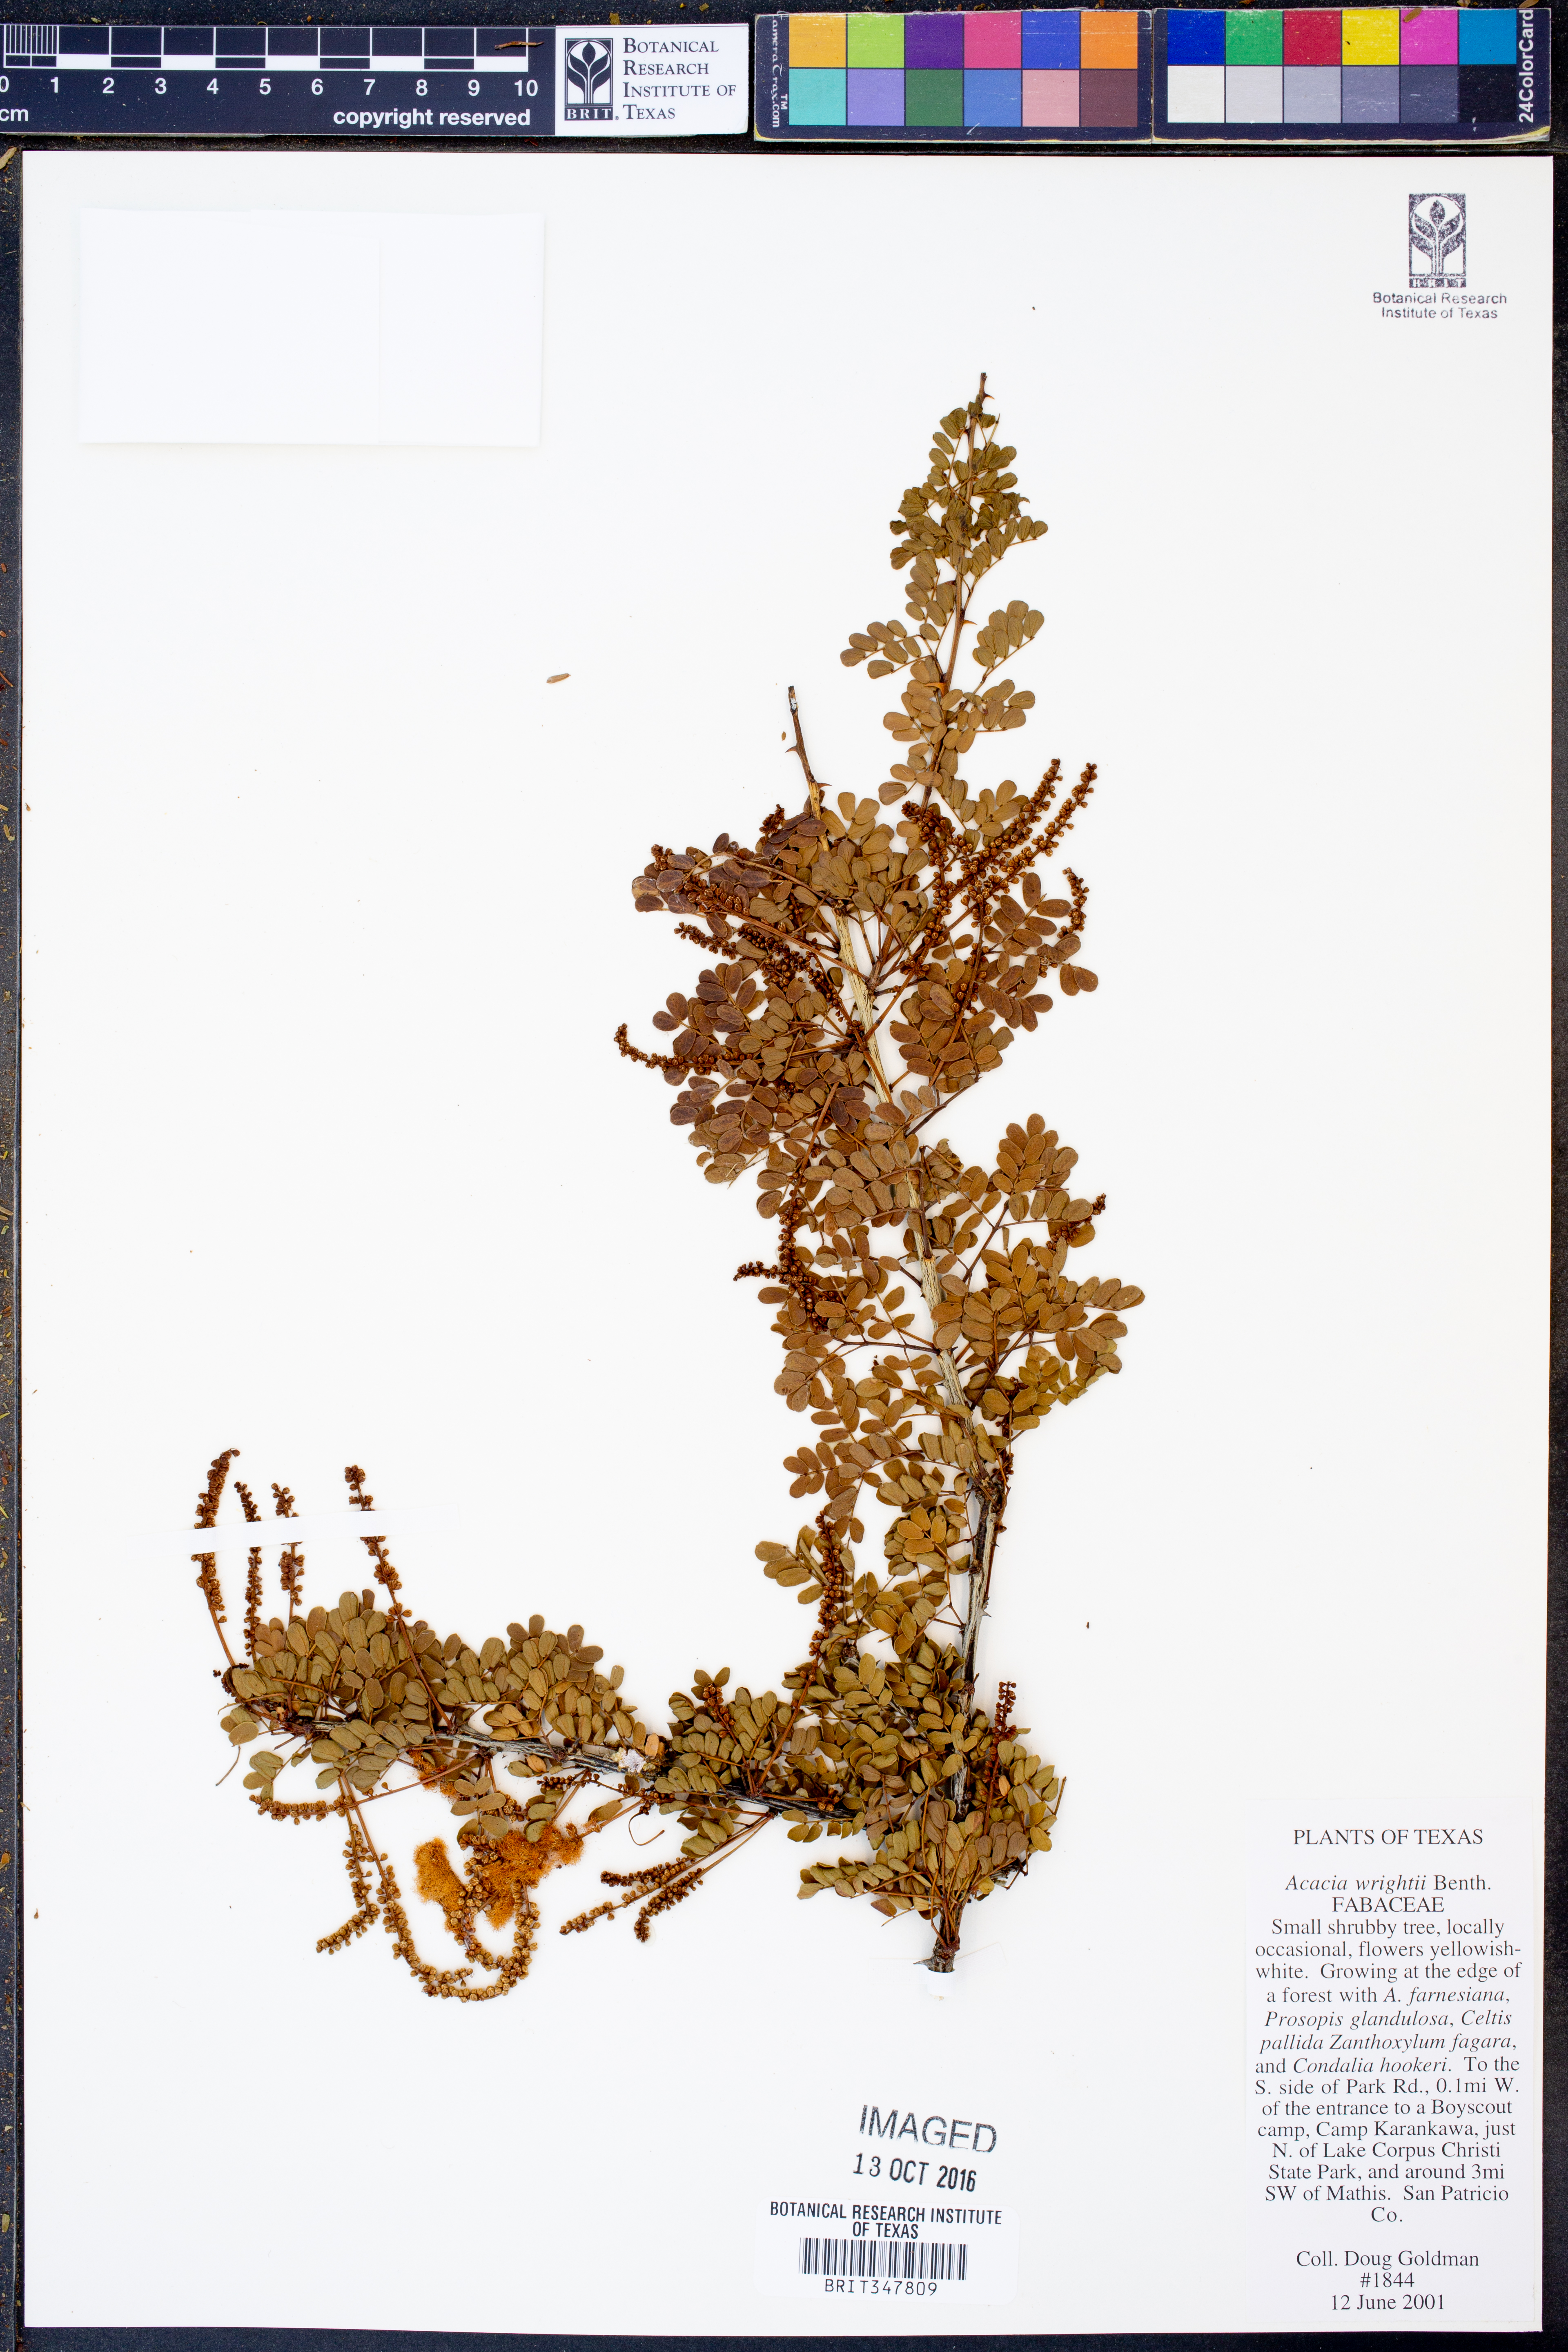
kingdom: Plantae
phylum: Tracheophyta
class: Magnoliopsida
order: Fabales
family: Fabaceae
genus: Senegalia
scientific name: Senegalia wrightii
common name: Texas cat's-claw
